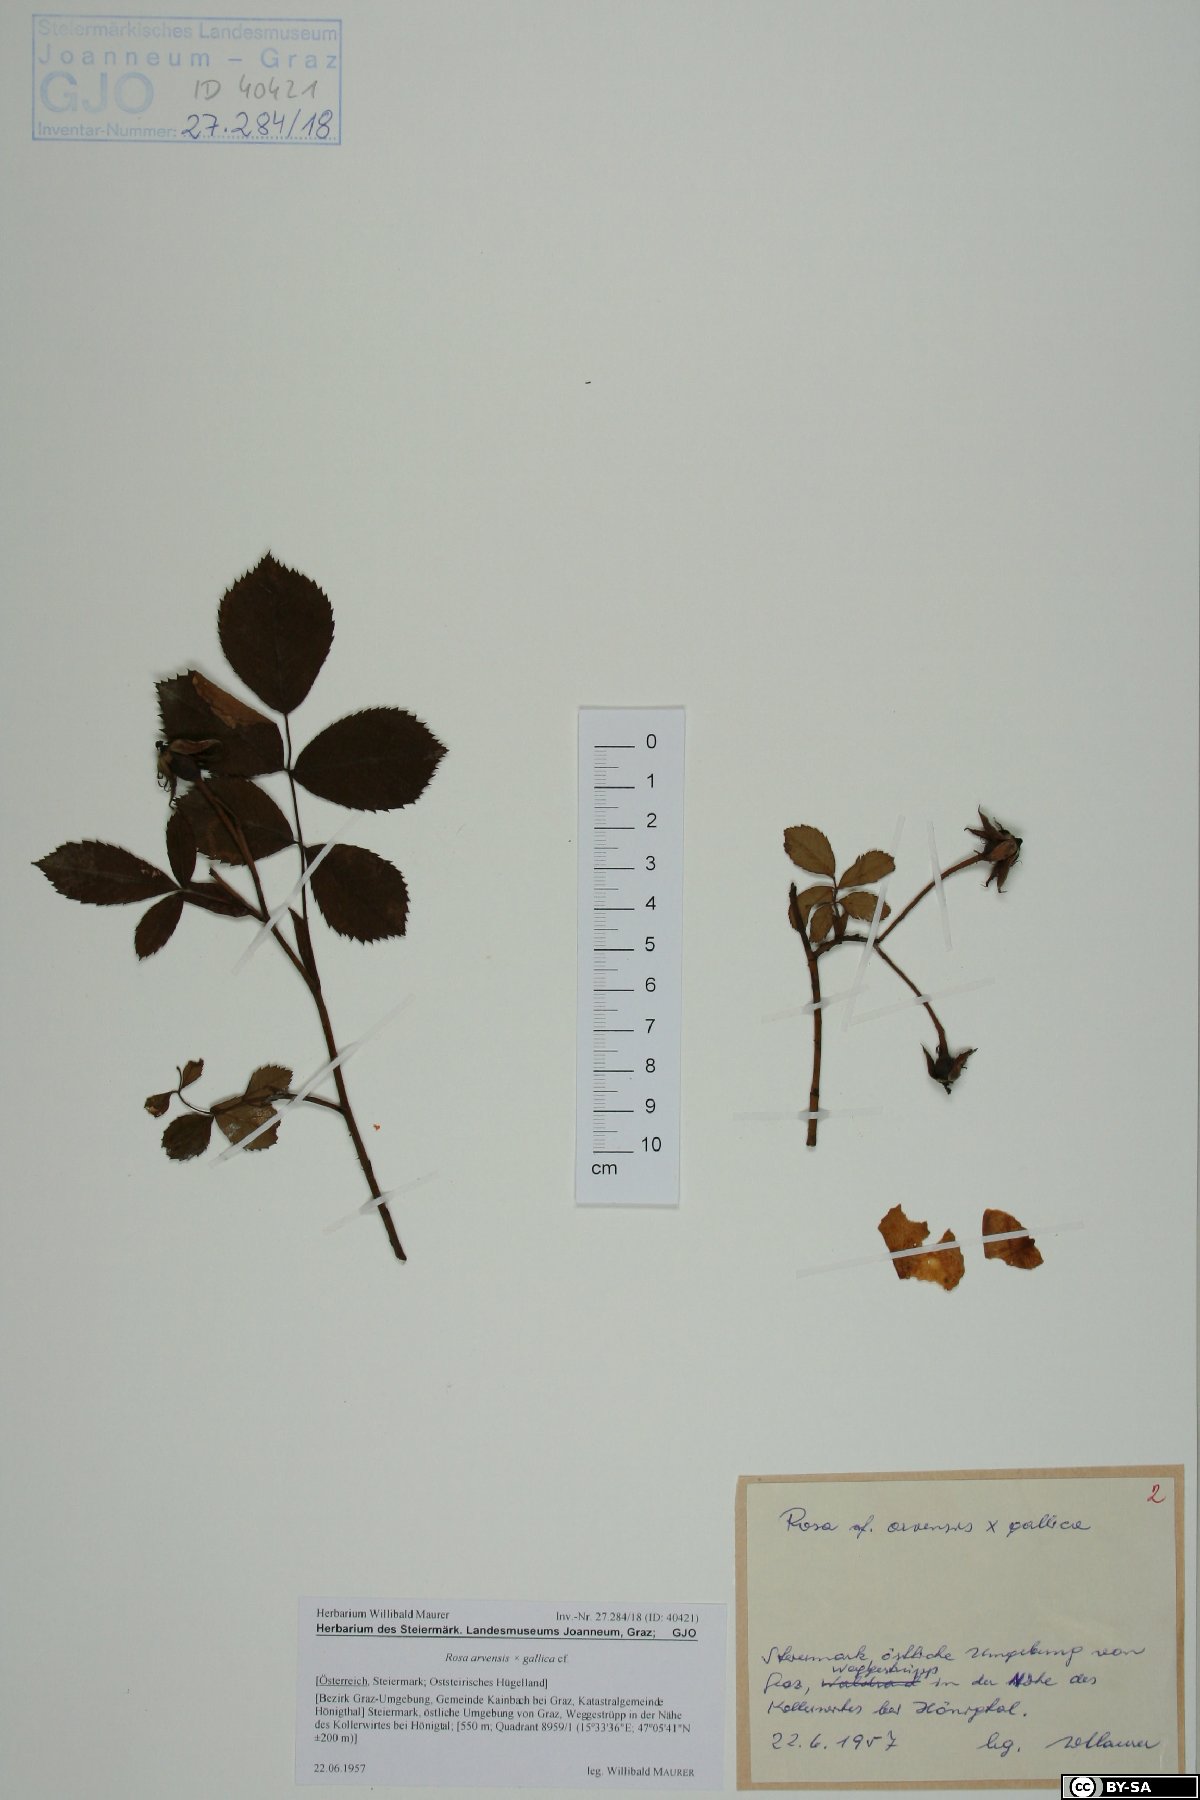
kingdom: Plantae
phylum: Tracheophyta
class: Magnoliopsida
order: Rosales
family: Rosaceae
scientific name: Rosaceae
